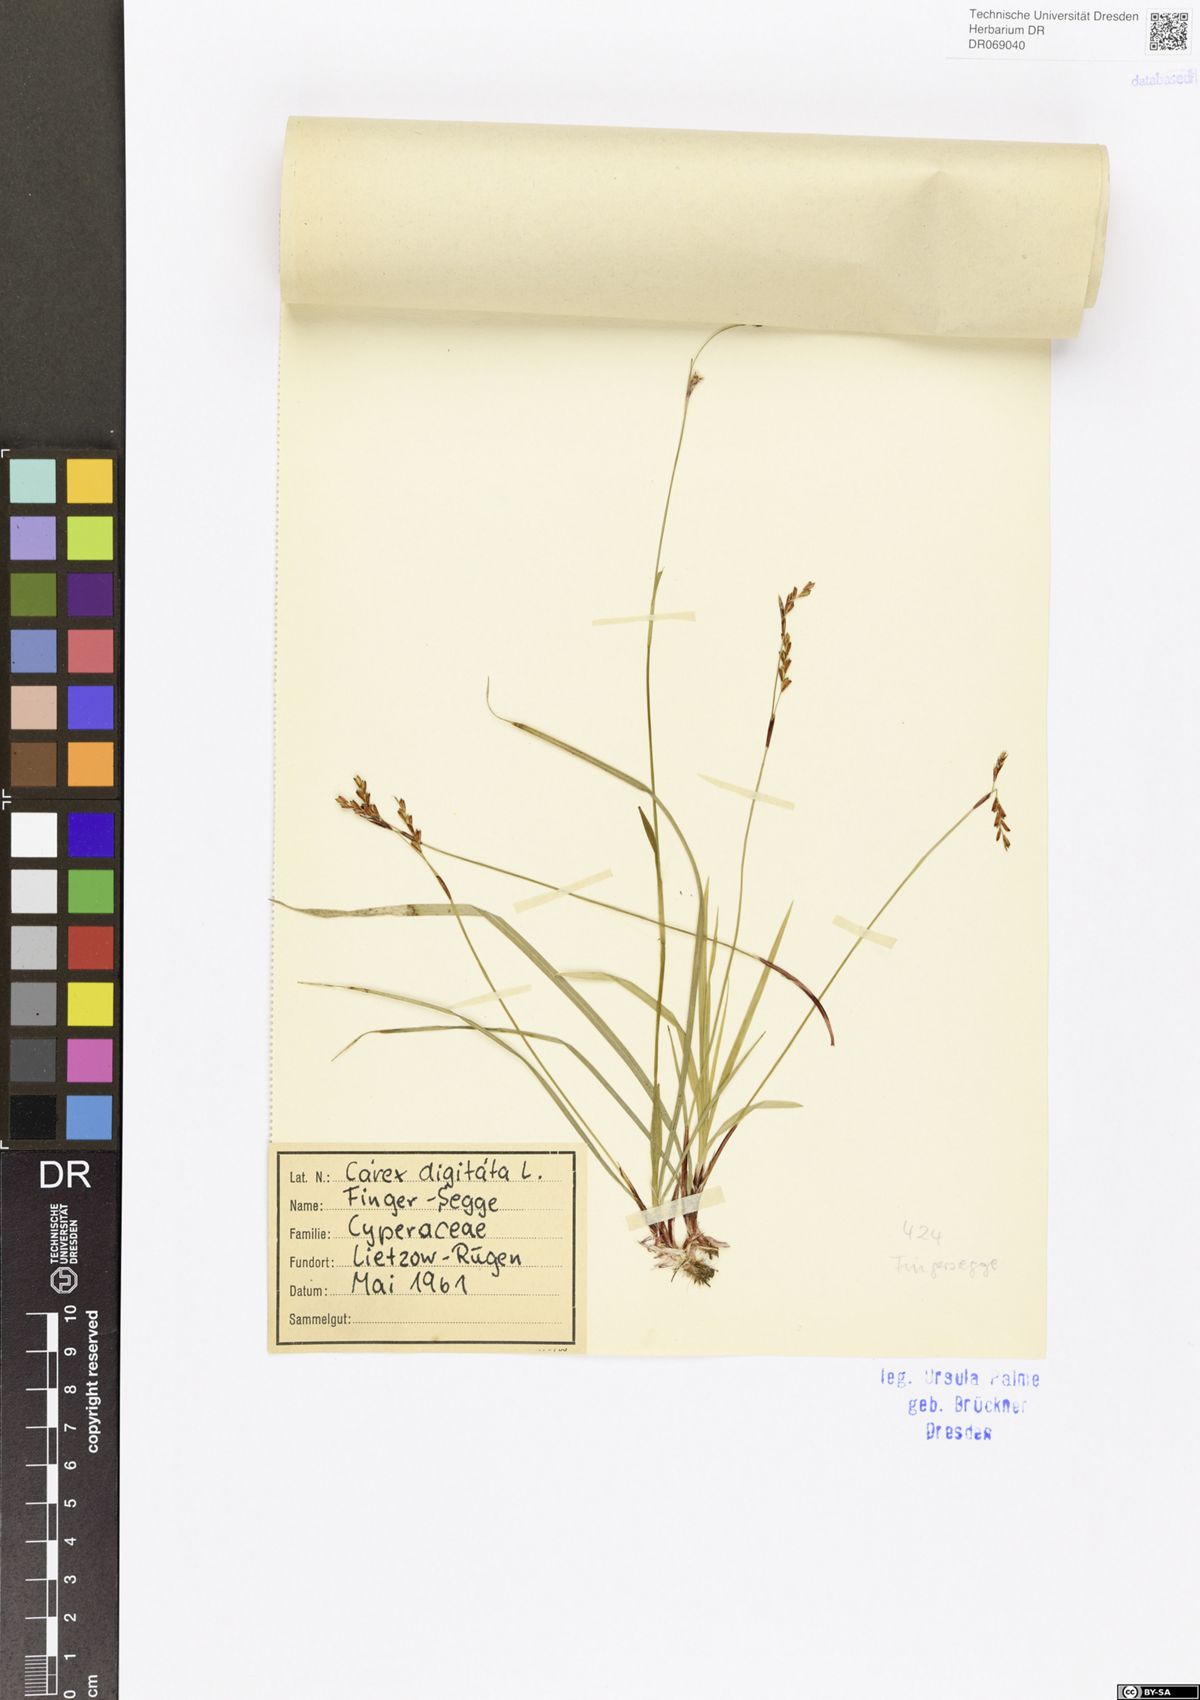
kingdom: Plantae
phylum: Tracheophyta
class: Liliopsida
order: Poales
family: Cyperaceae
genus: Carex
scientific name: Carex digitata
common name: Fingered sedge
